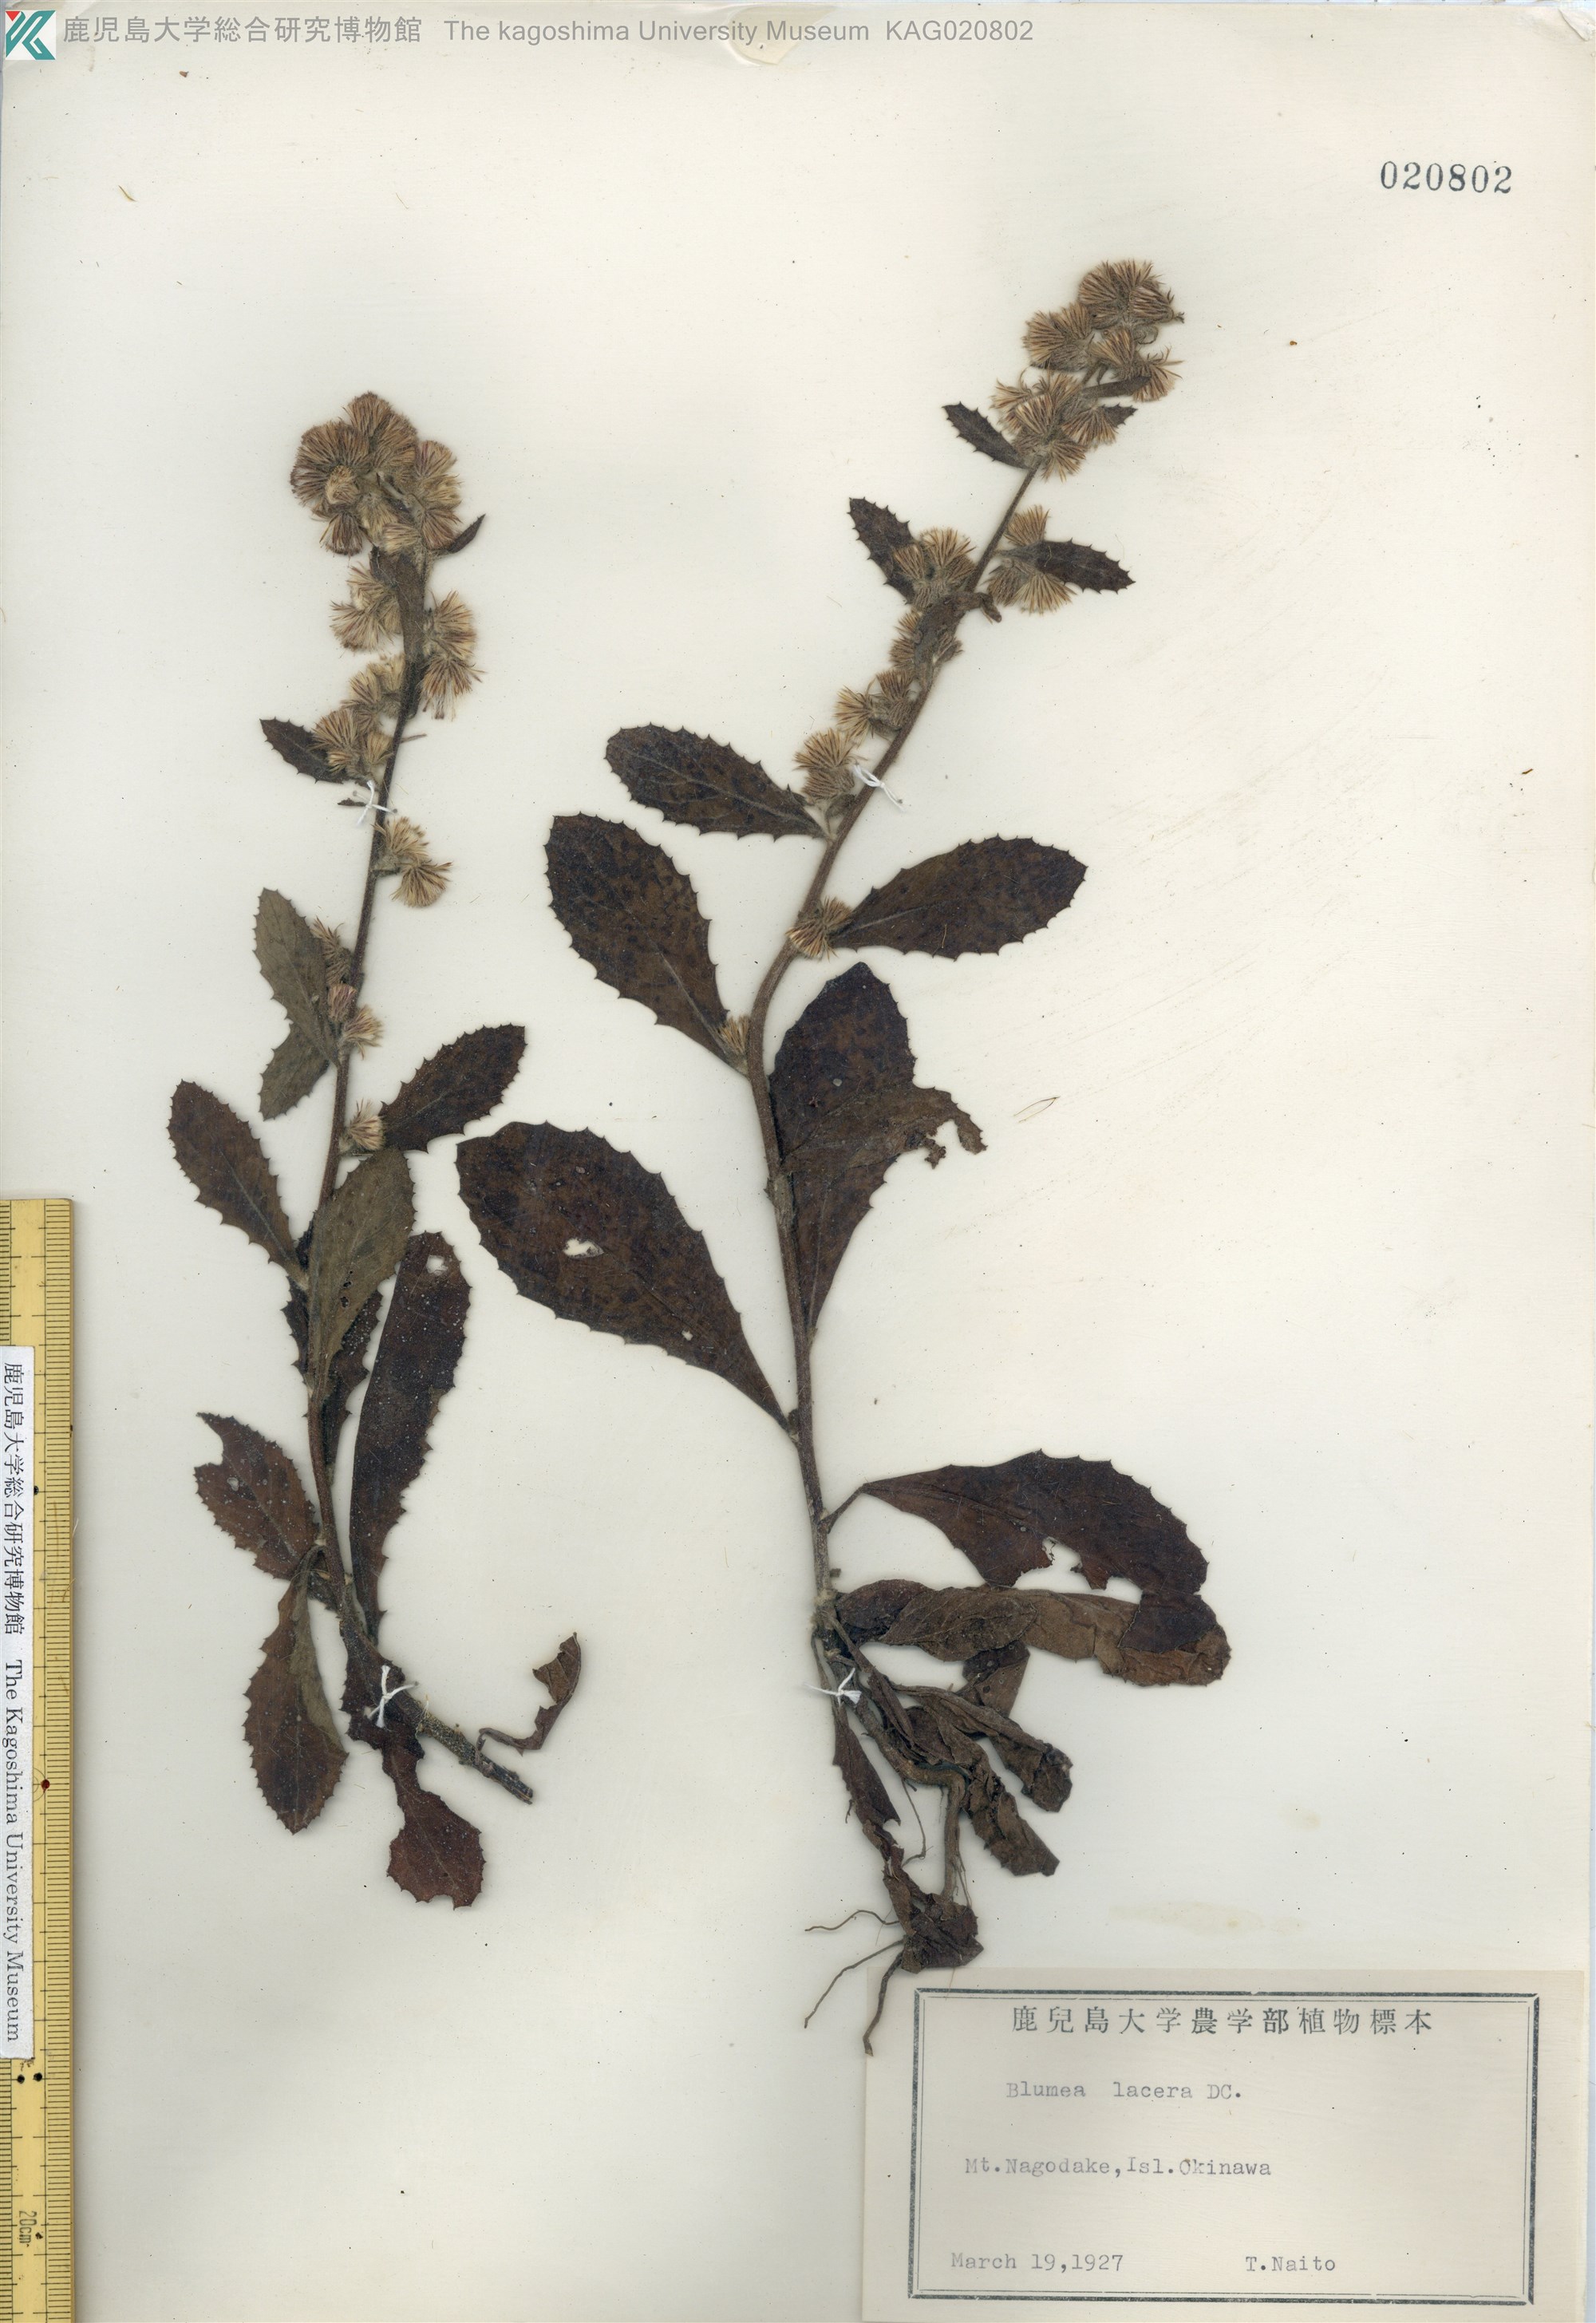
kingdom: Plantae
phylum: Tracheophyta
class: Magnoliopsida
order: Asterales
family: Asteraceae
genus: Blumea
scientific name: Blumea lacera
